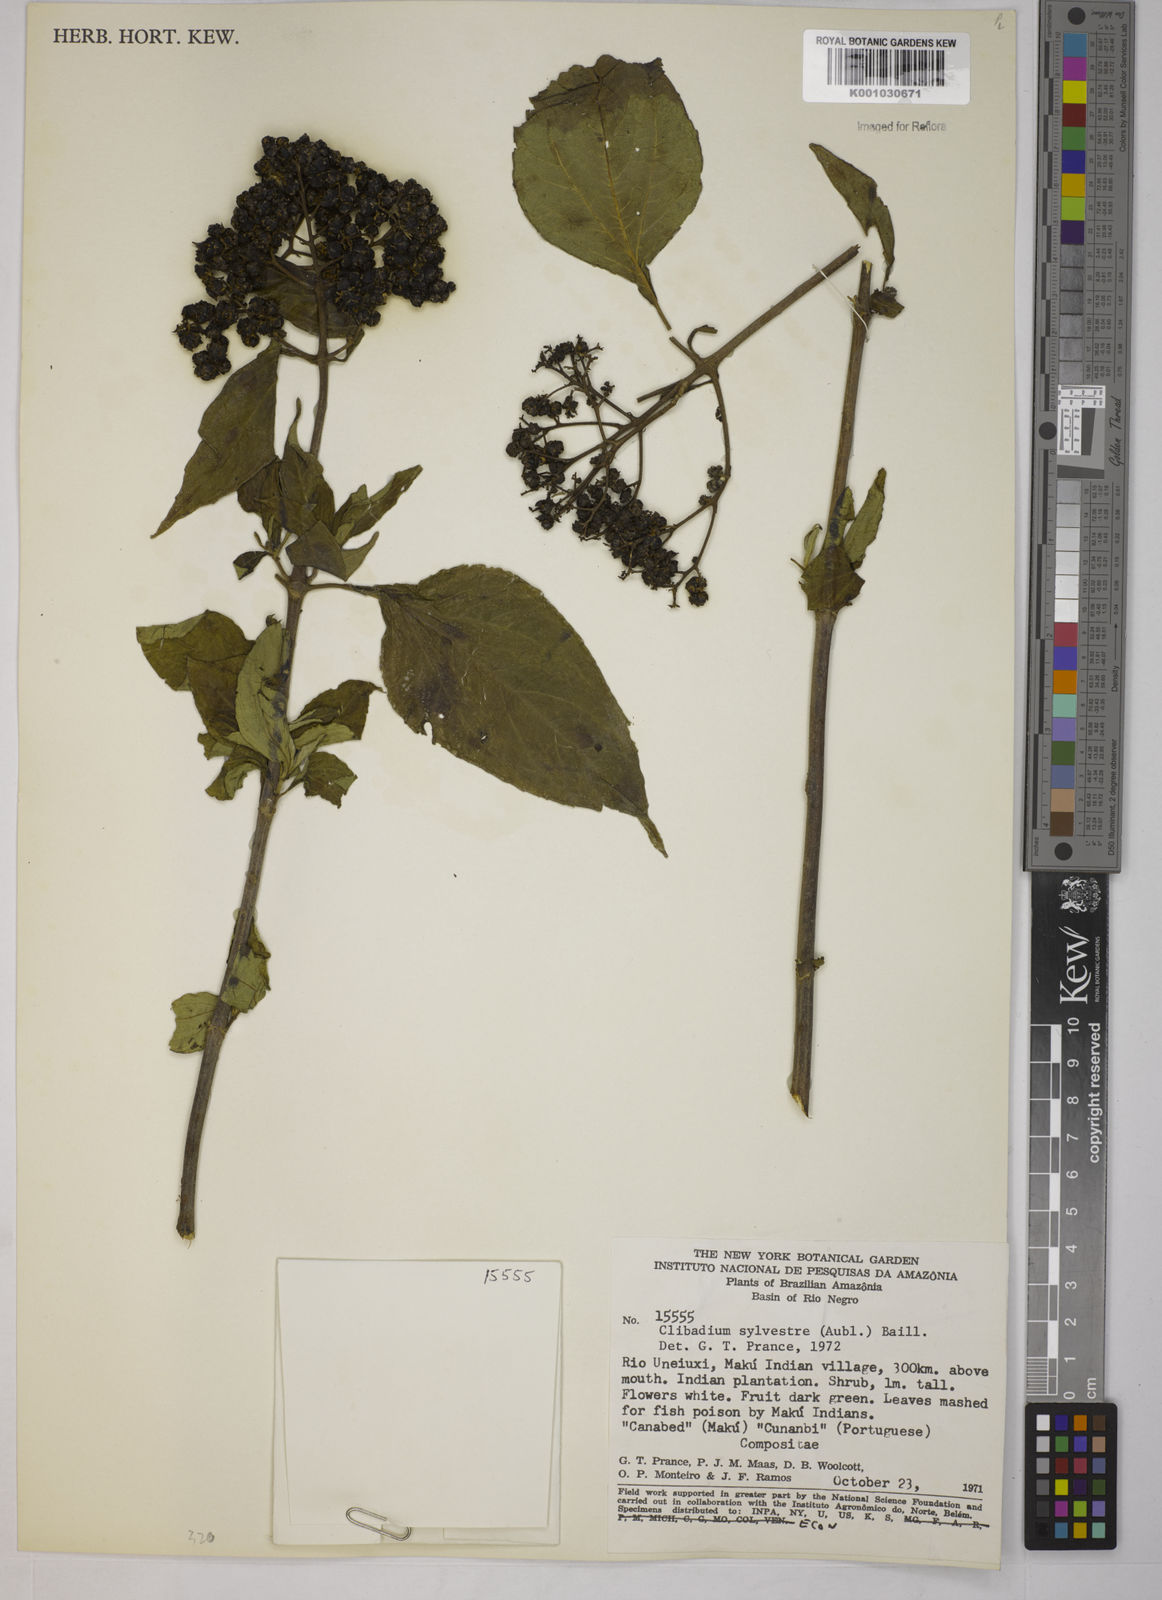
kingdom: Plantae
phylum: Tracheophyta
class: Magnoliopsida
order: Asterales
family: Asteraceae
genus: Clibadium
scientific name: Clibadium sylvestre
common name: Barbasco
